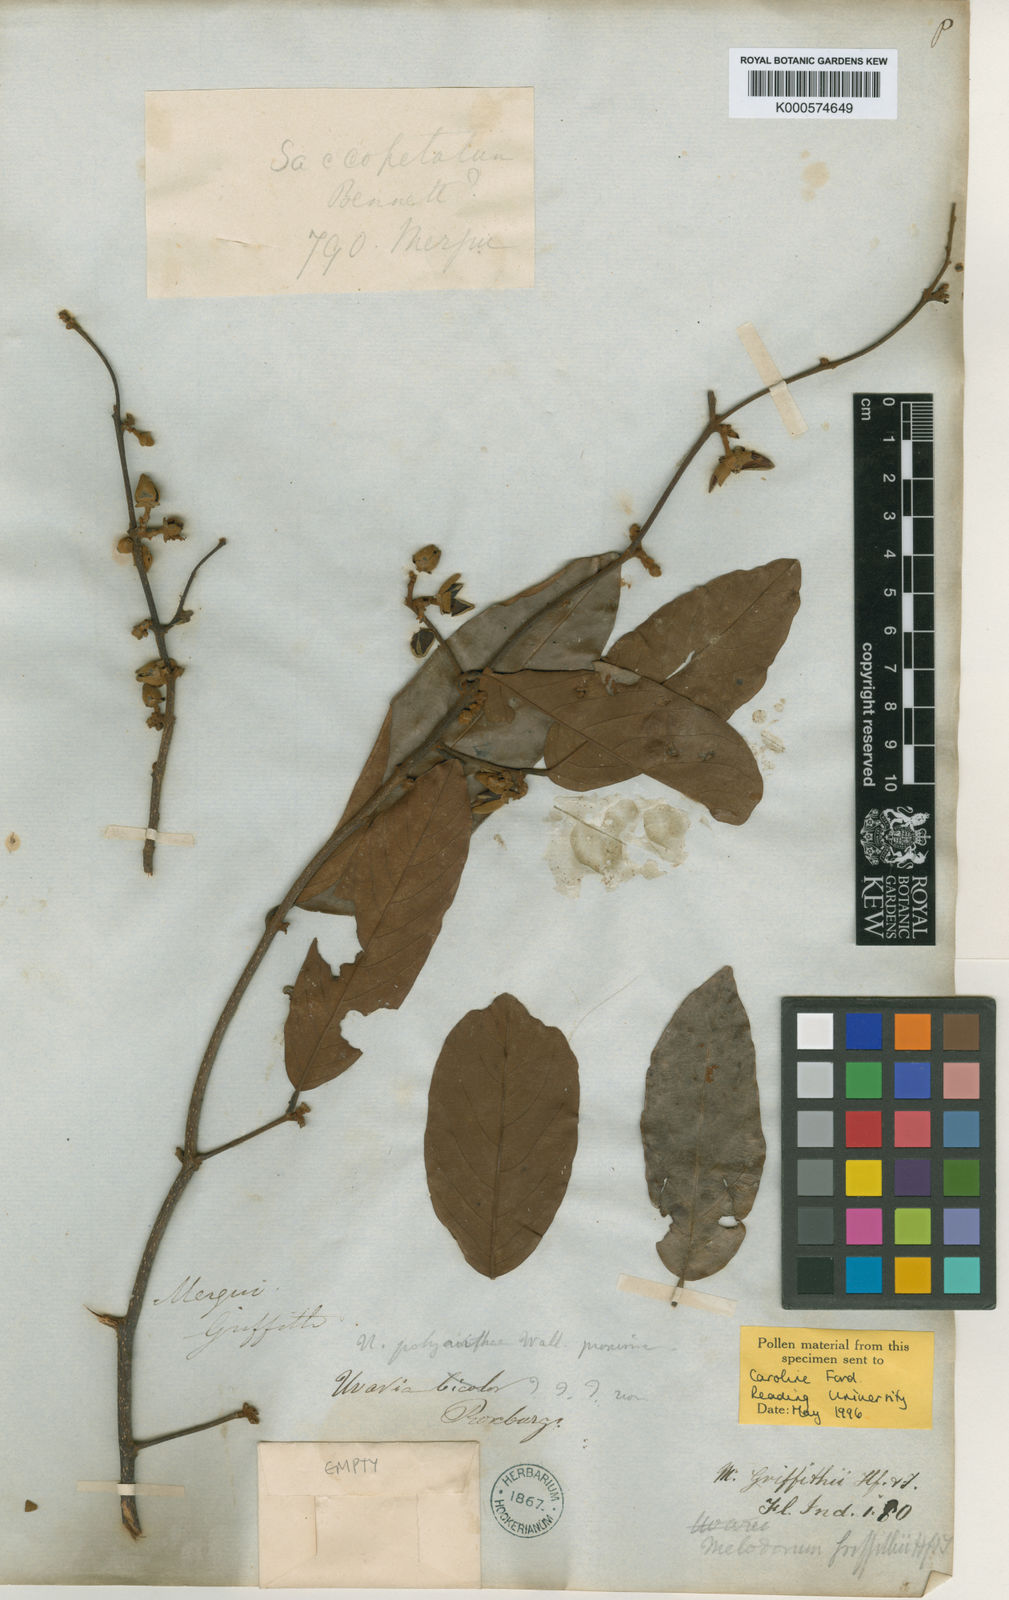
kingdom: Plantae
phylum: Tracheophyta
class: Magnoliopsida
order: Magnoliales
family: Annonaceae
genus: Fissistigma
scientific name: Fissistigma scandens
